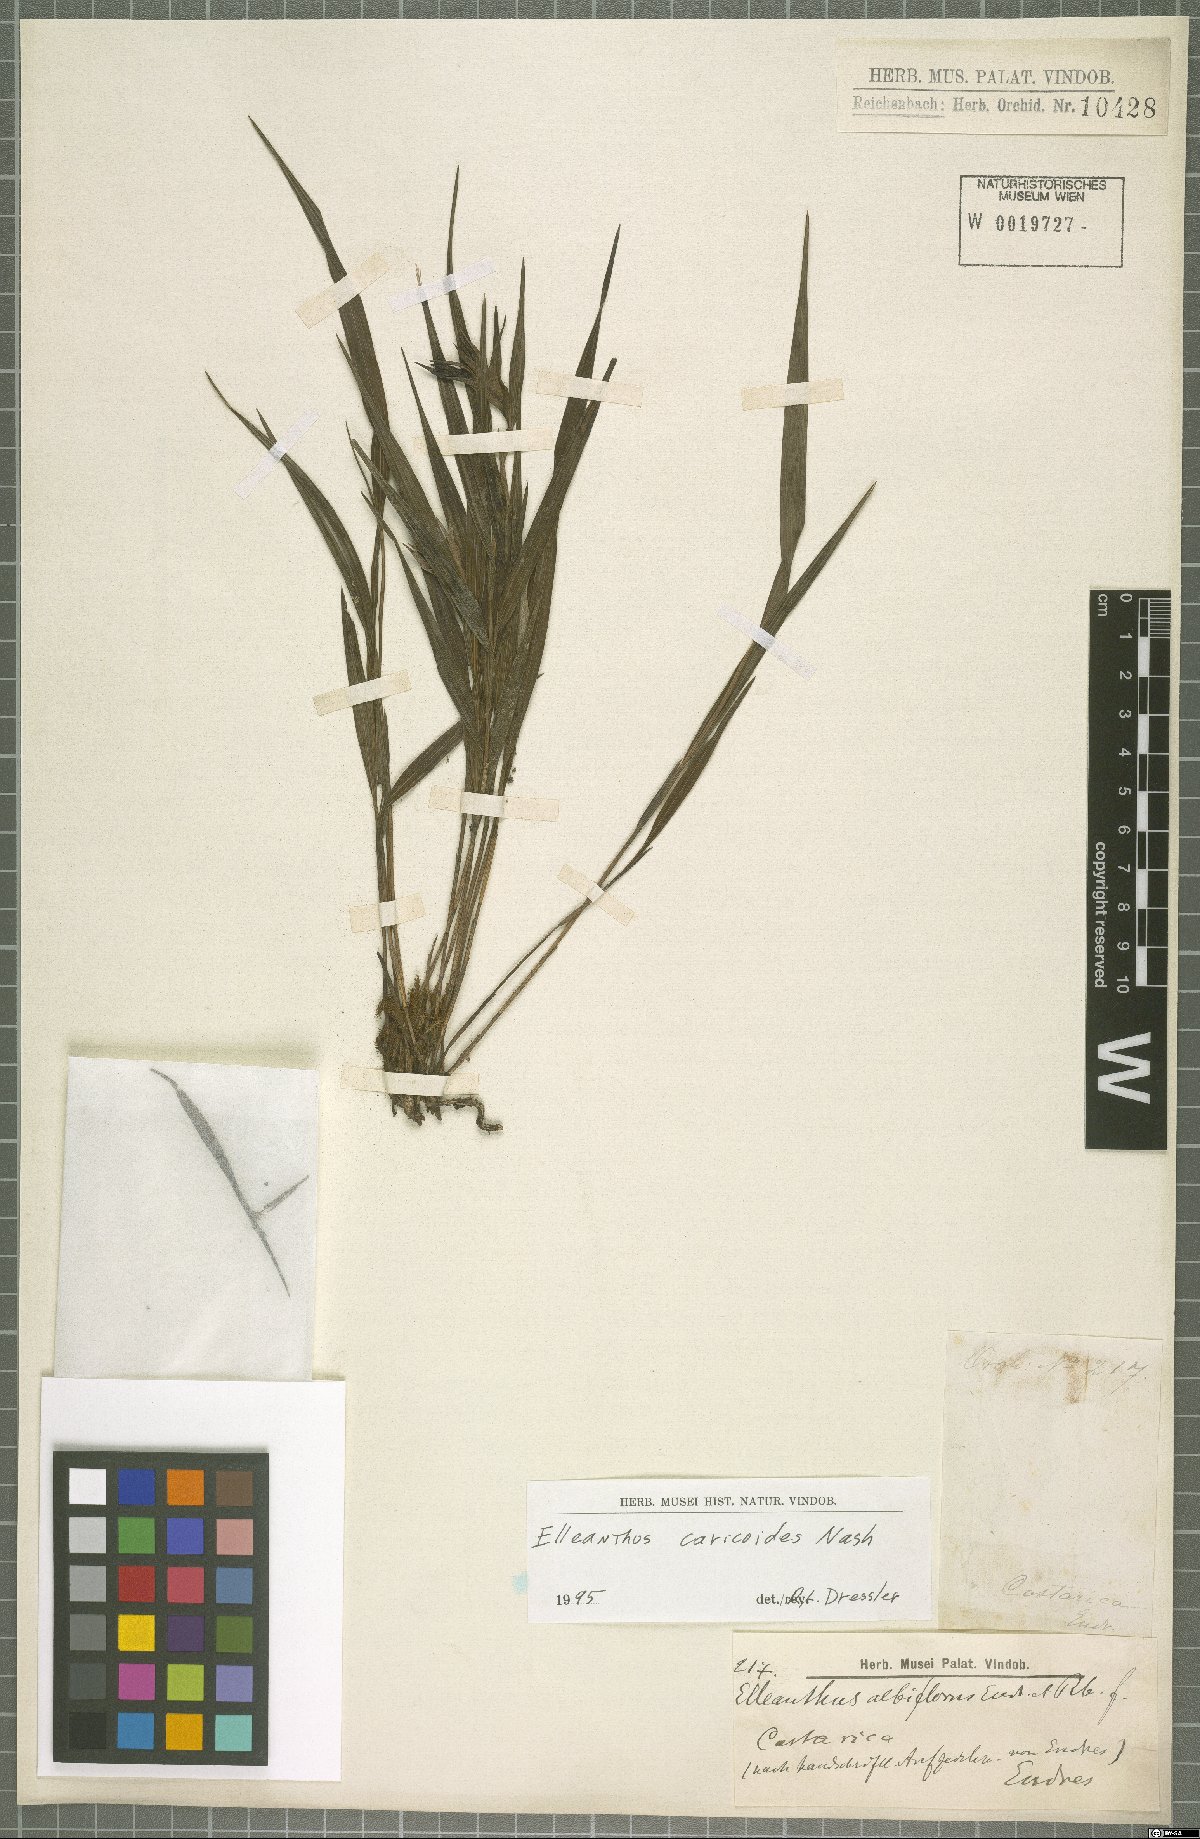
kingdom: Plantae
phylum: Tracheophyta
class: Liliopsida
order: Asparagales
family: Orchidaceae
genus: Elleanthus
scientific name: Elleanthus caricoides
